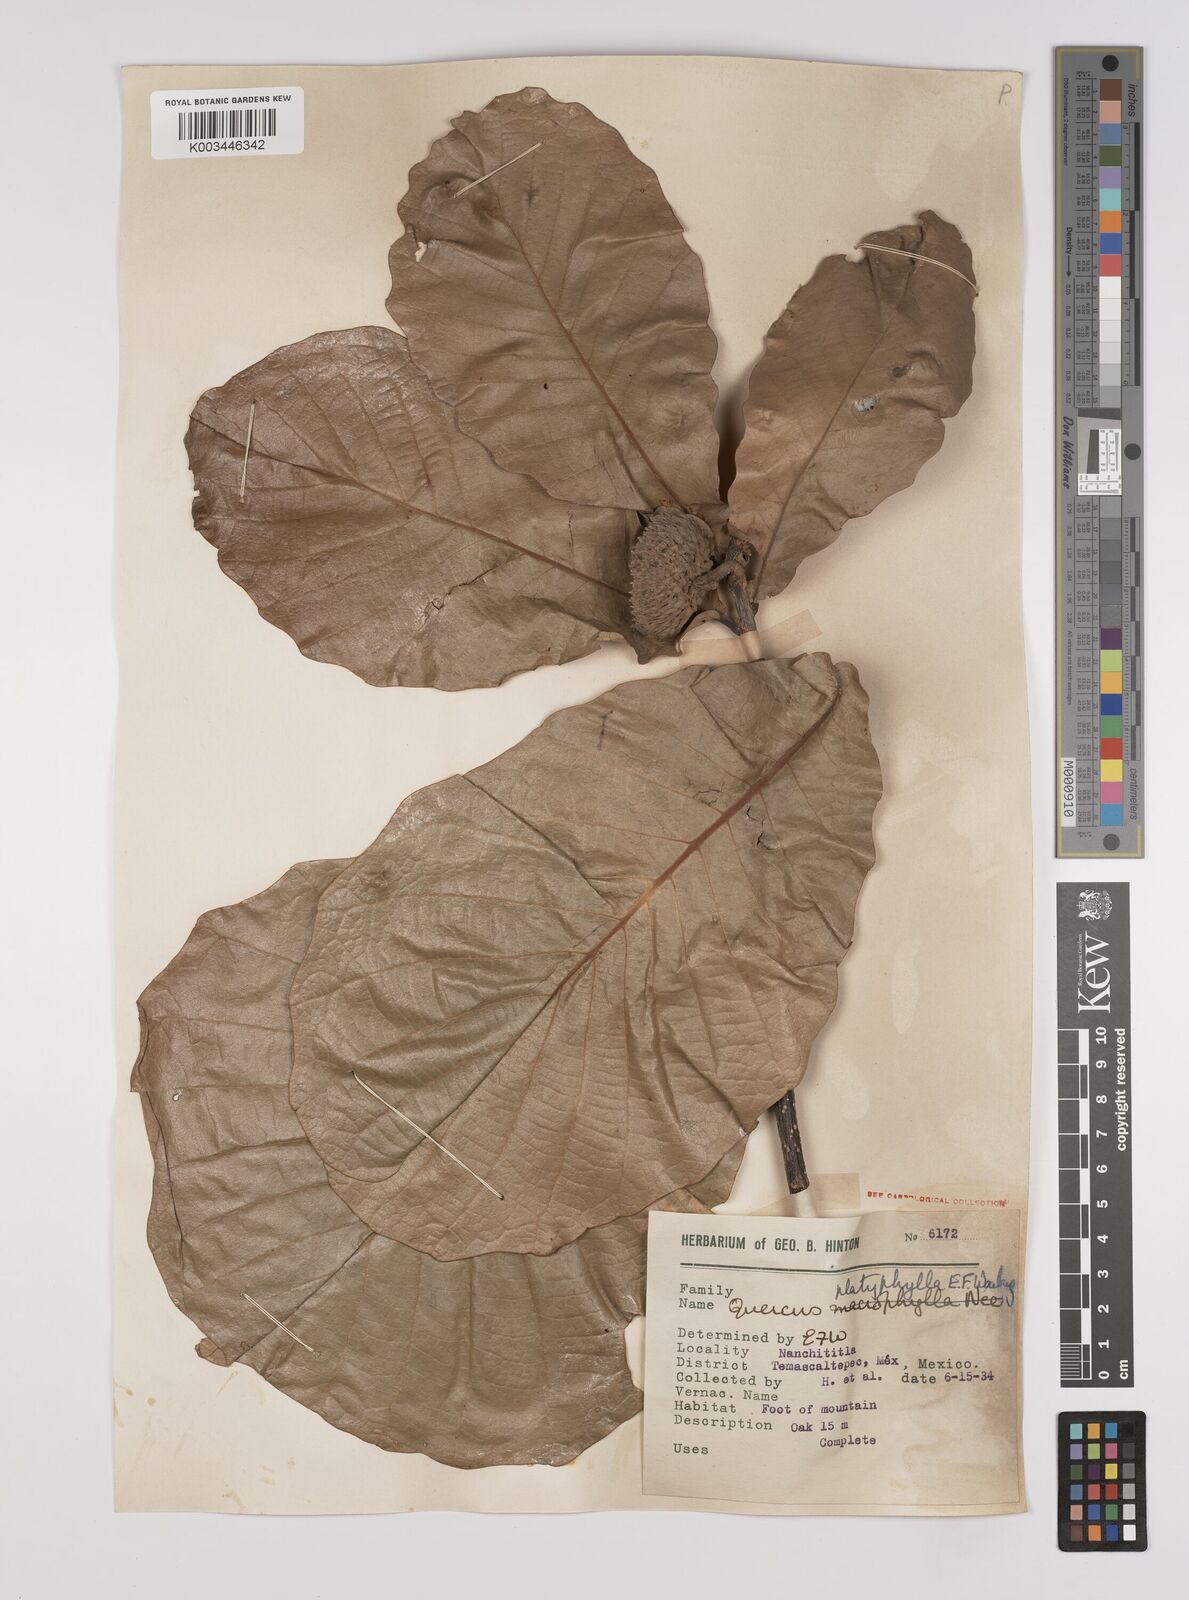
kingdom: Plantae
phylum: Tracheophyta
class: Magnoliopsida
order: Fagales
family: Fagaceae
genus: Quercus
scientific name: Quercus
